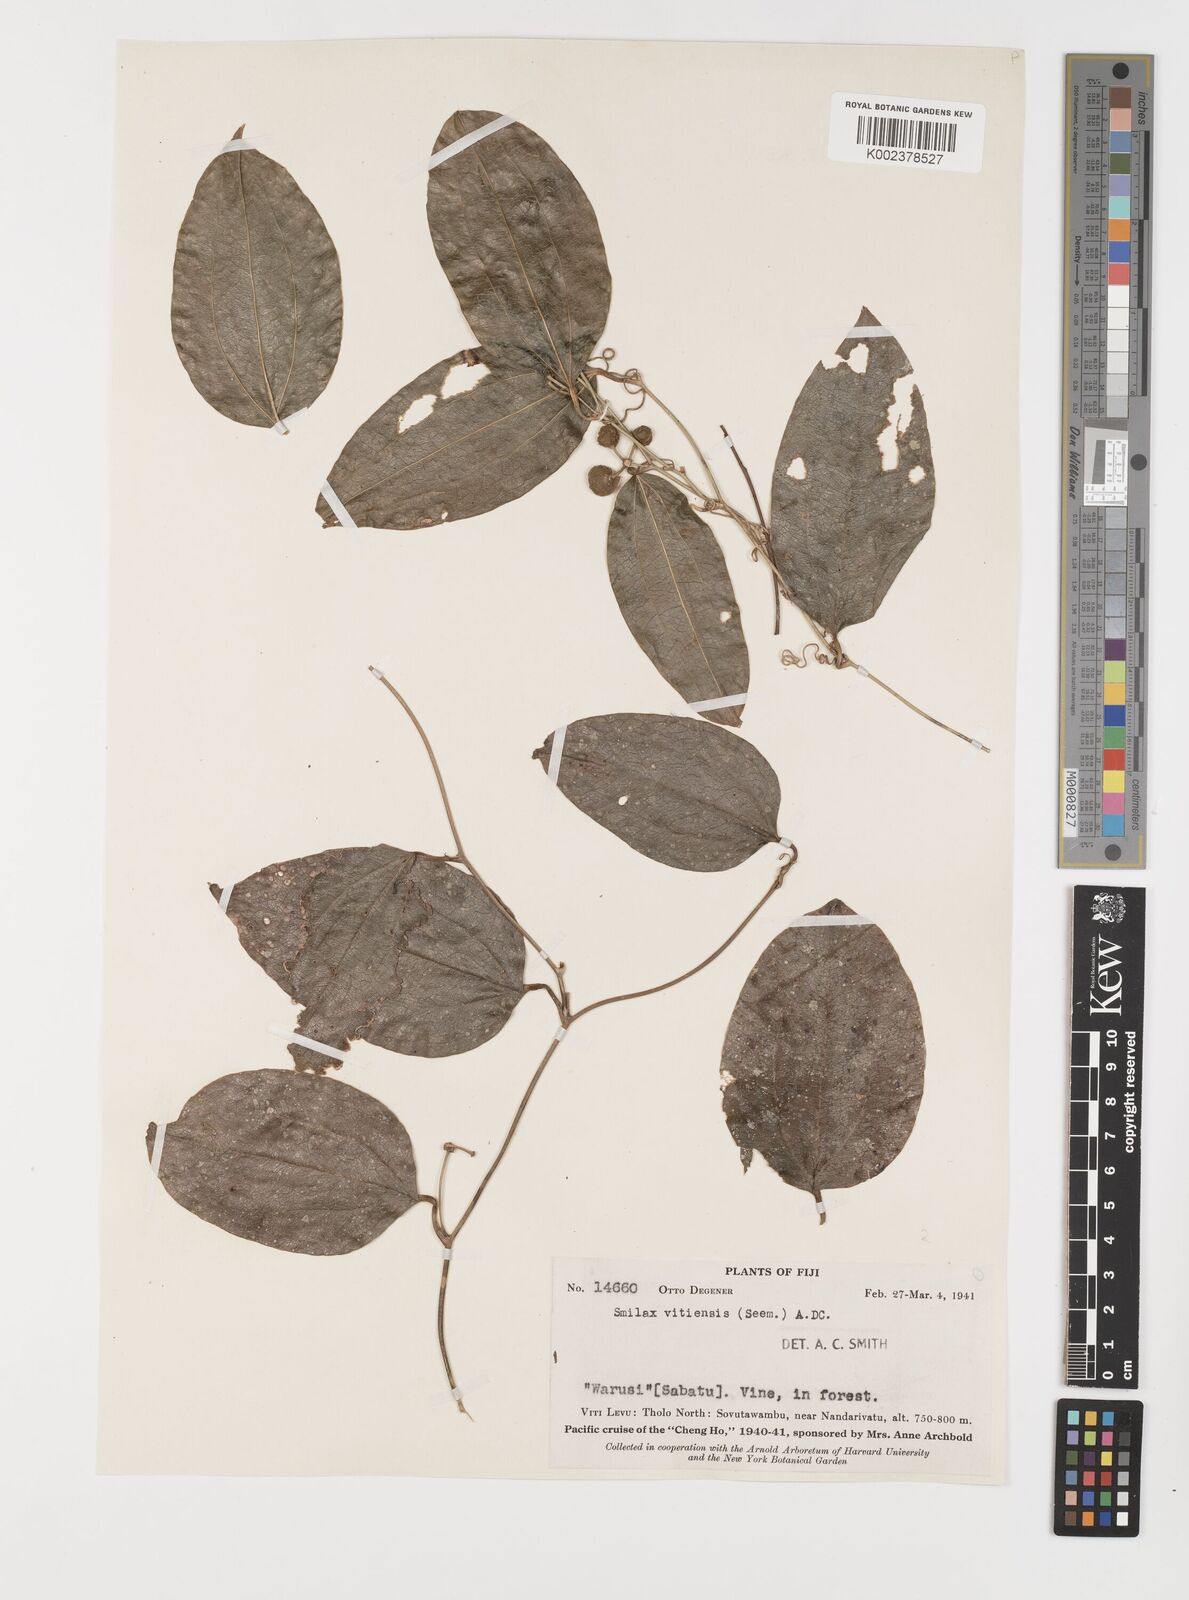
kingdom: Plantae
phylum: Tracheophyta
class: Liliopsida
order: Liliales
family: Smilacaceae
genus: Smilax
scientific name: Smilax vitiensis
